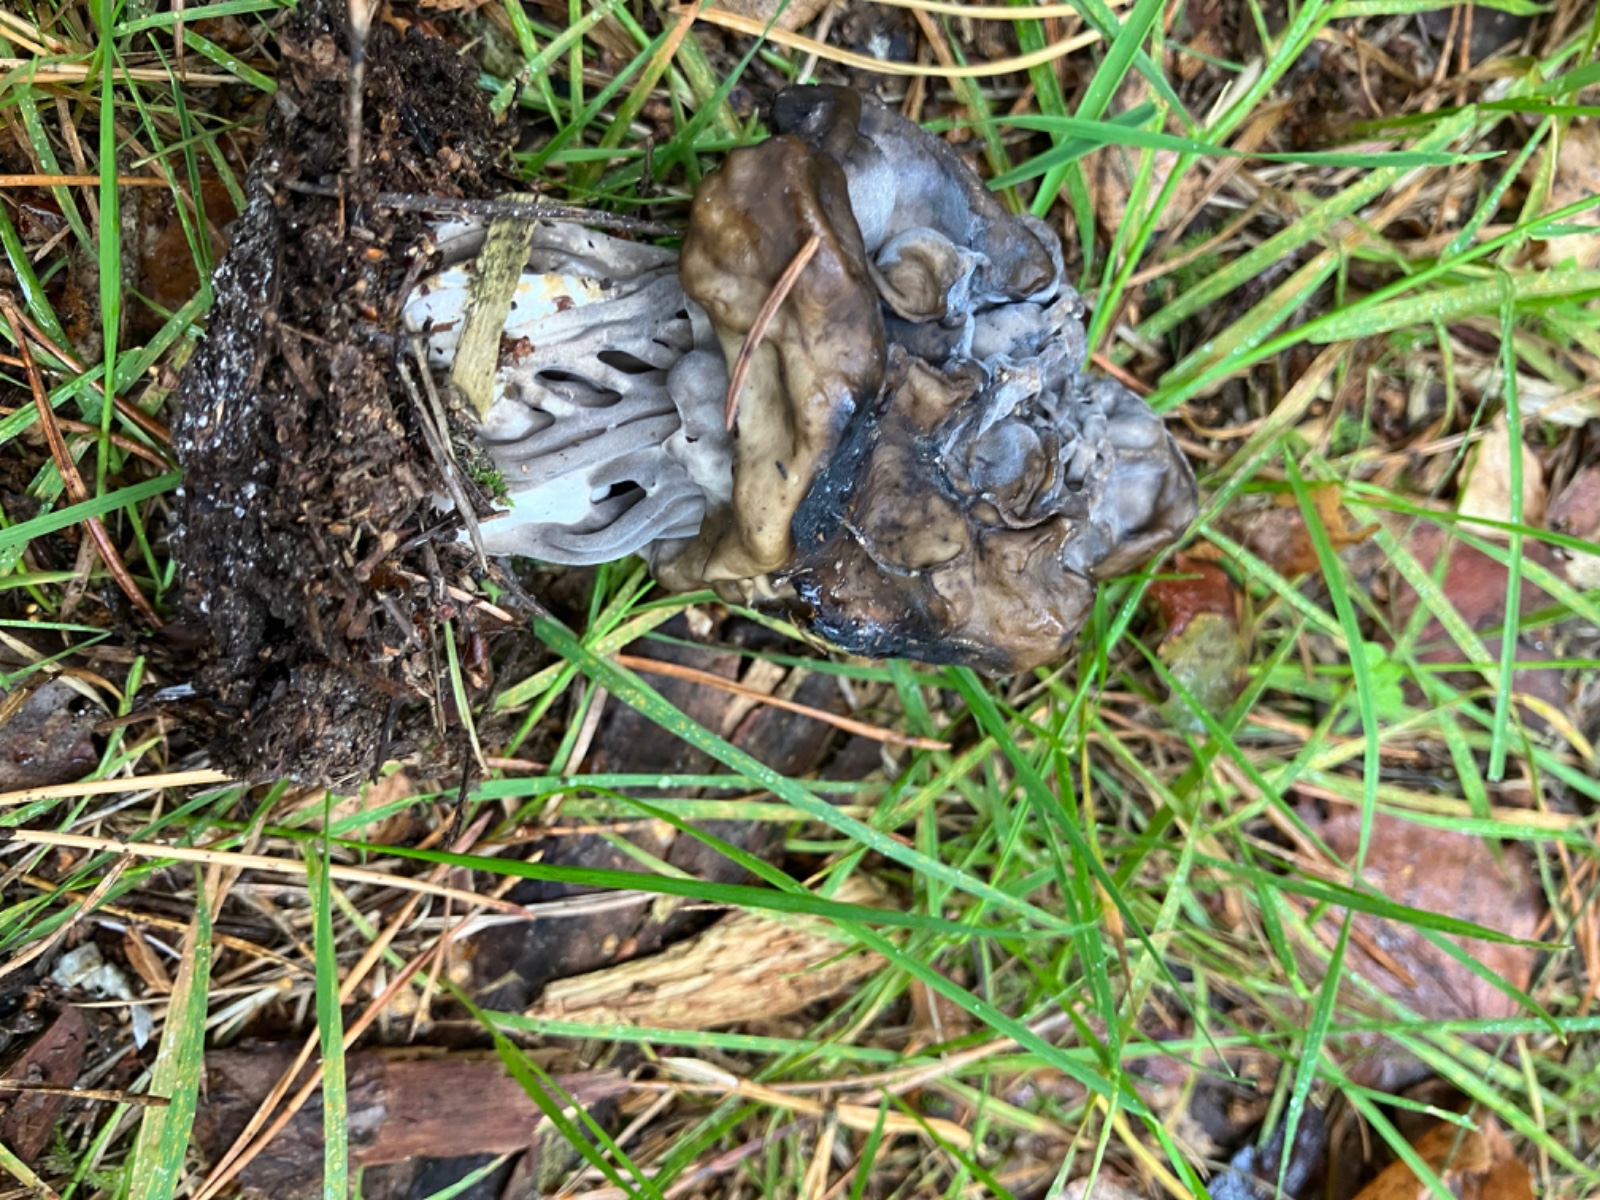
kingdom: Fungi
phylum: Ascomycota
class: Pezizomycetes
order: Pezizales
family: Helvellaceae
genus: Helvella
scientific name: Helvella lacunosa
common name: grubet foldhat
